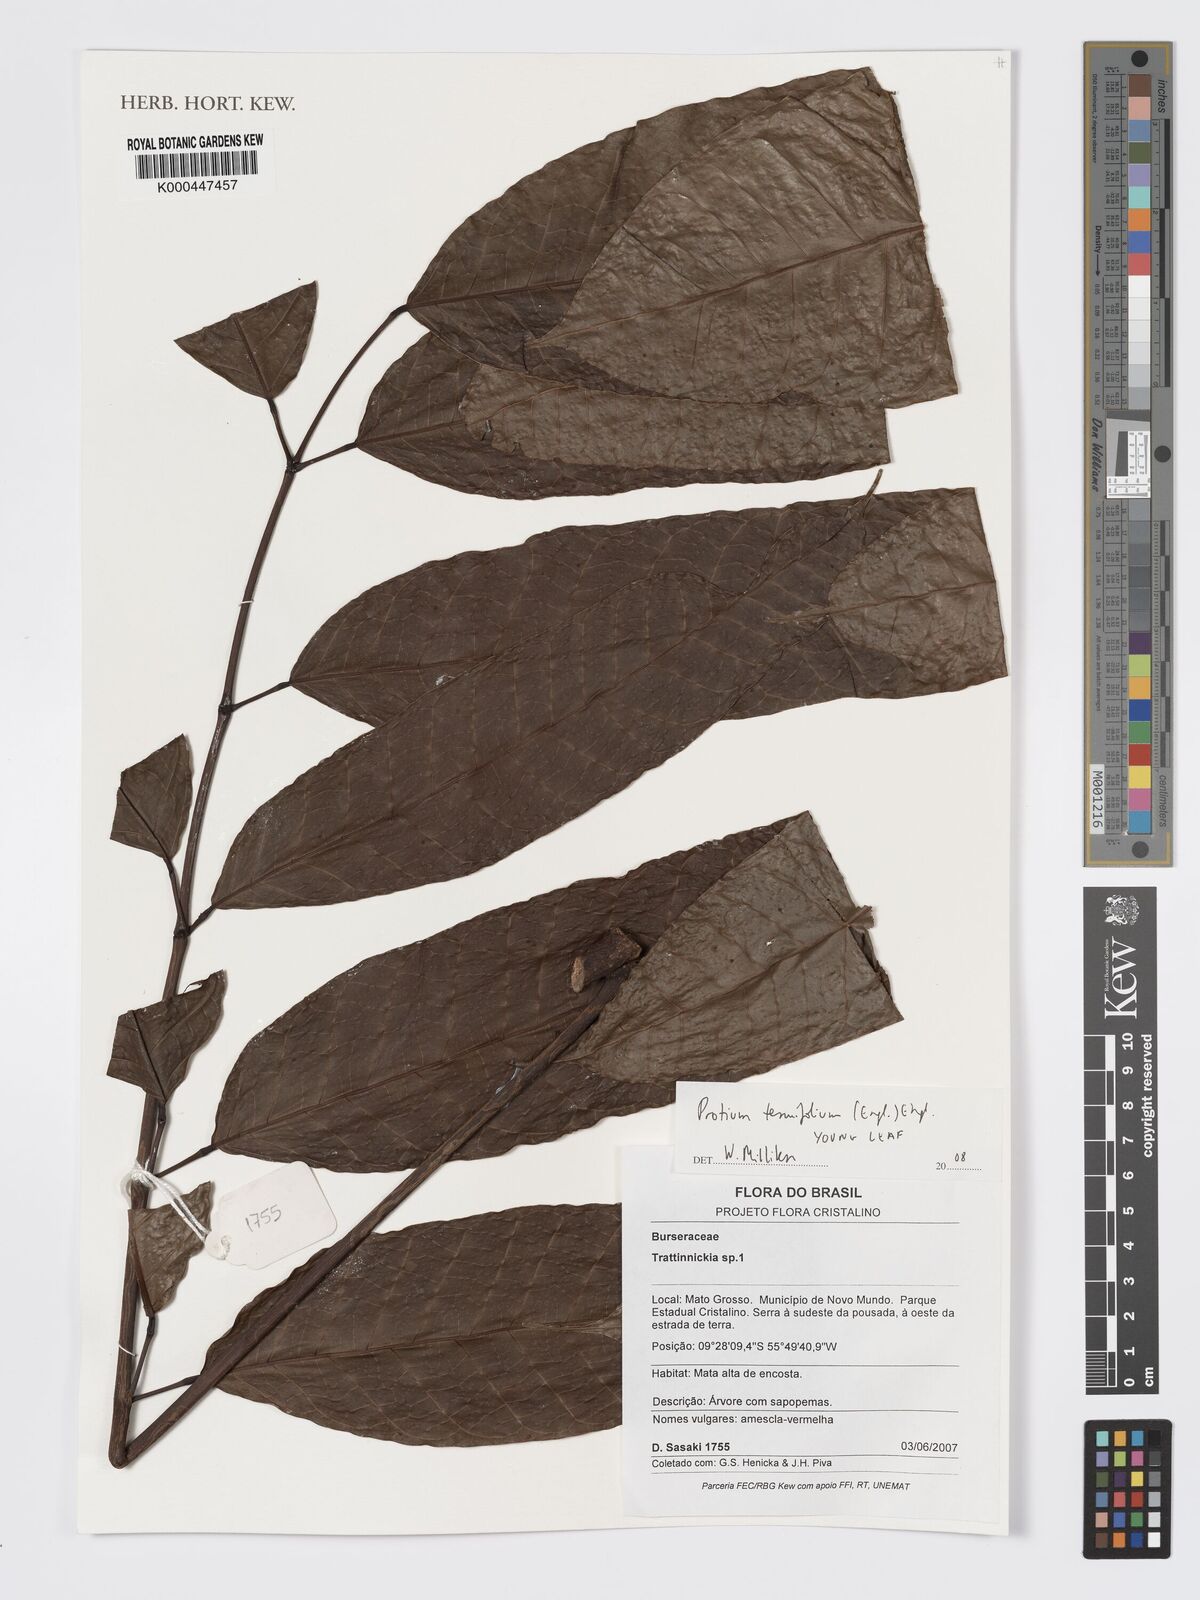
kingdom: Plantae
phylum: Tracheophyta
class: Magnoliopsida
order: Sapindales
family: Burseraceae
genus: Protium
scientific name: Protium tenuifolium
